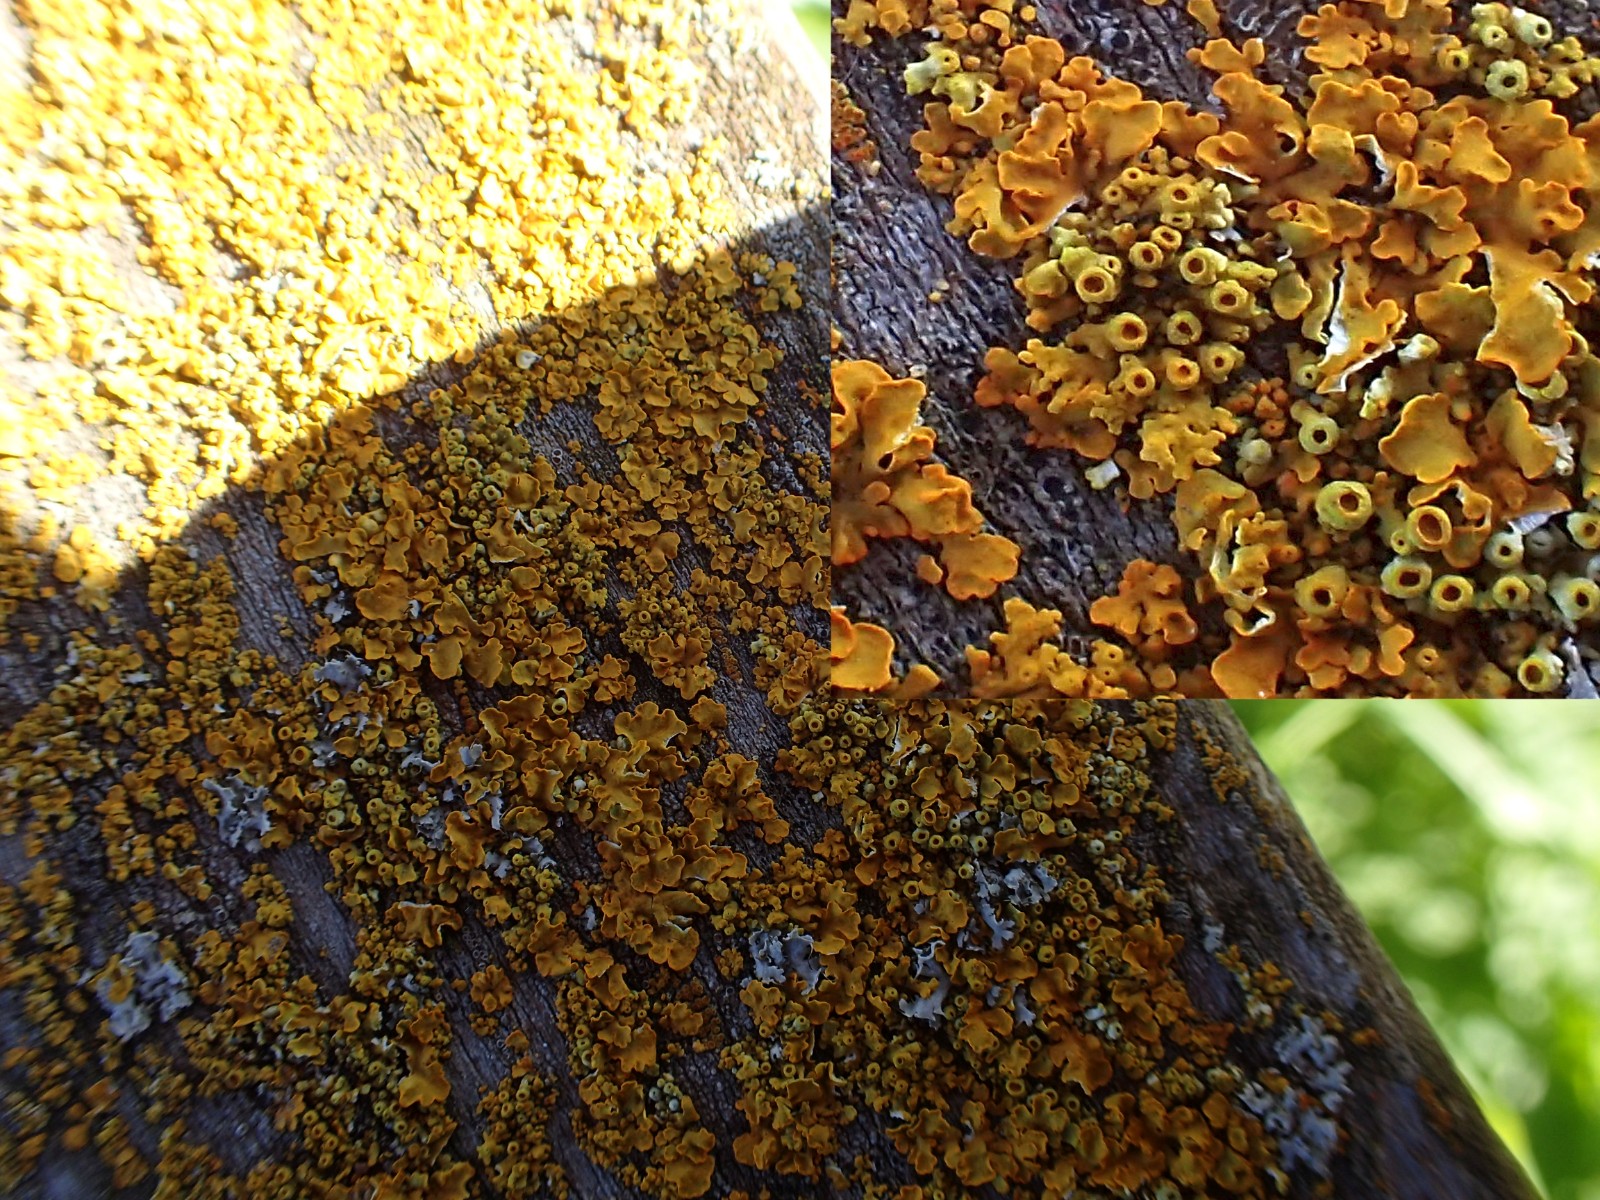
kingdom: Fungi
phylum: Ascomycota
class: Lecanoromycetes
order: Teloschistales
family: Teloschistaceae
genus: Xanthoria
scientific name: Xanthoria parietina
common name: almindelig væggelav
